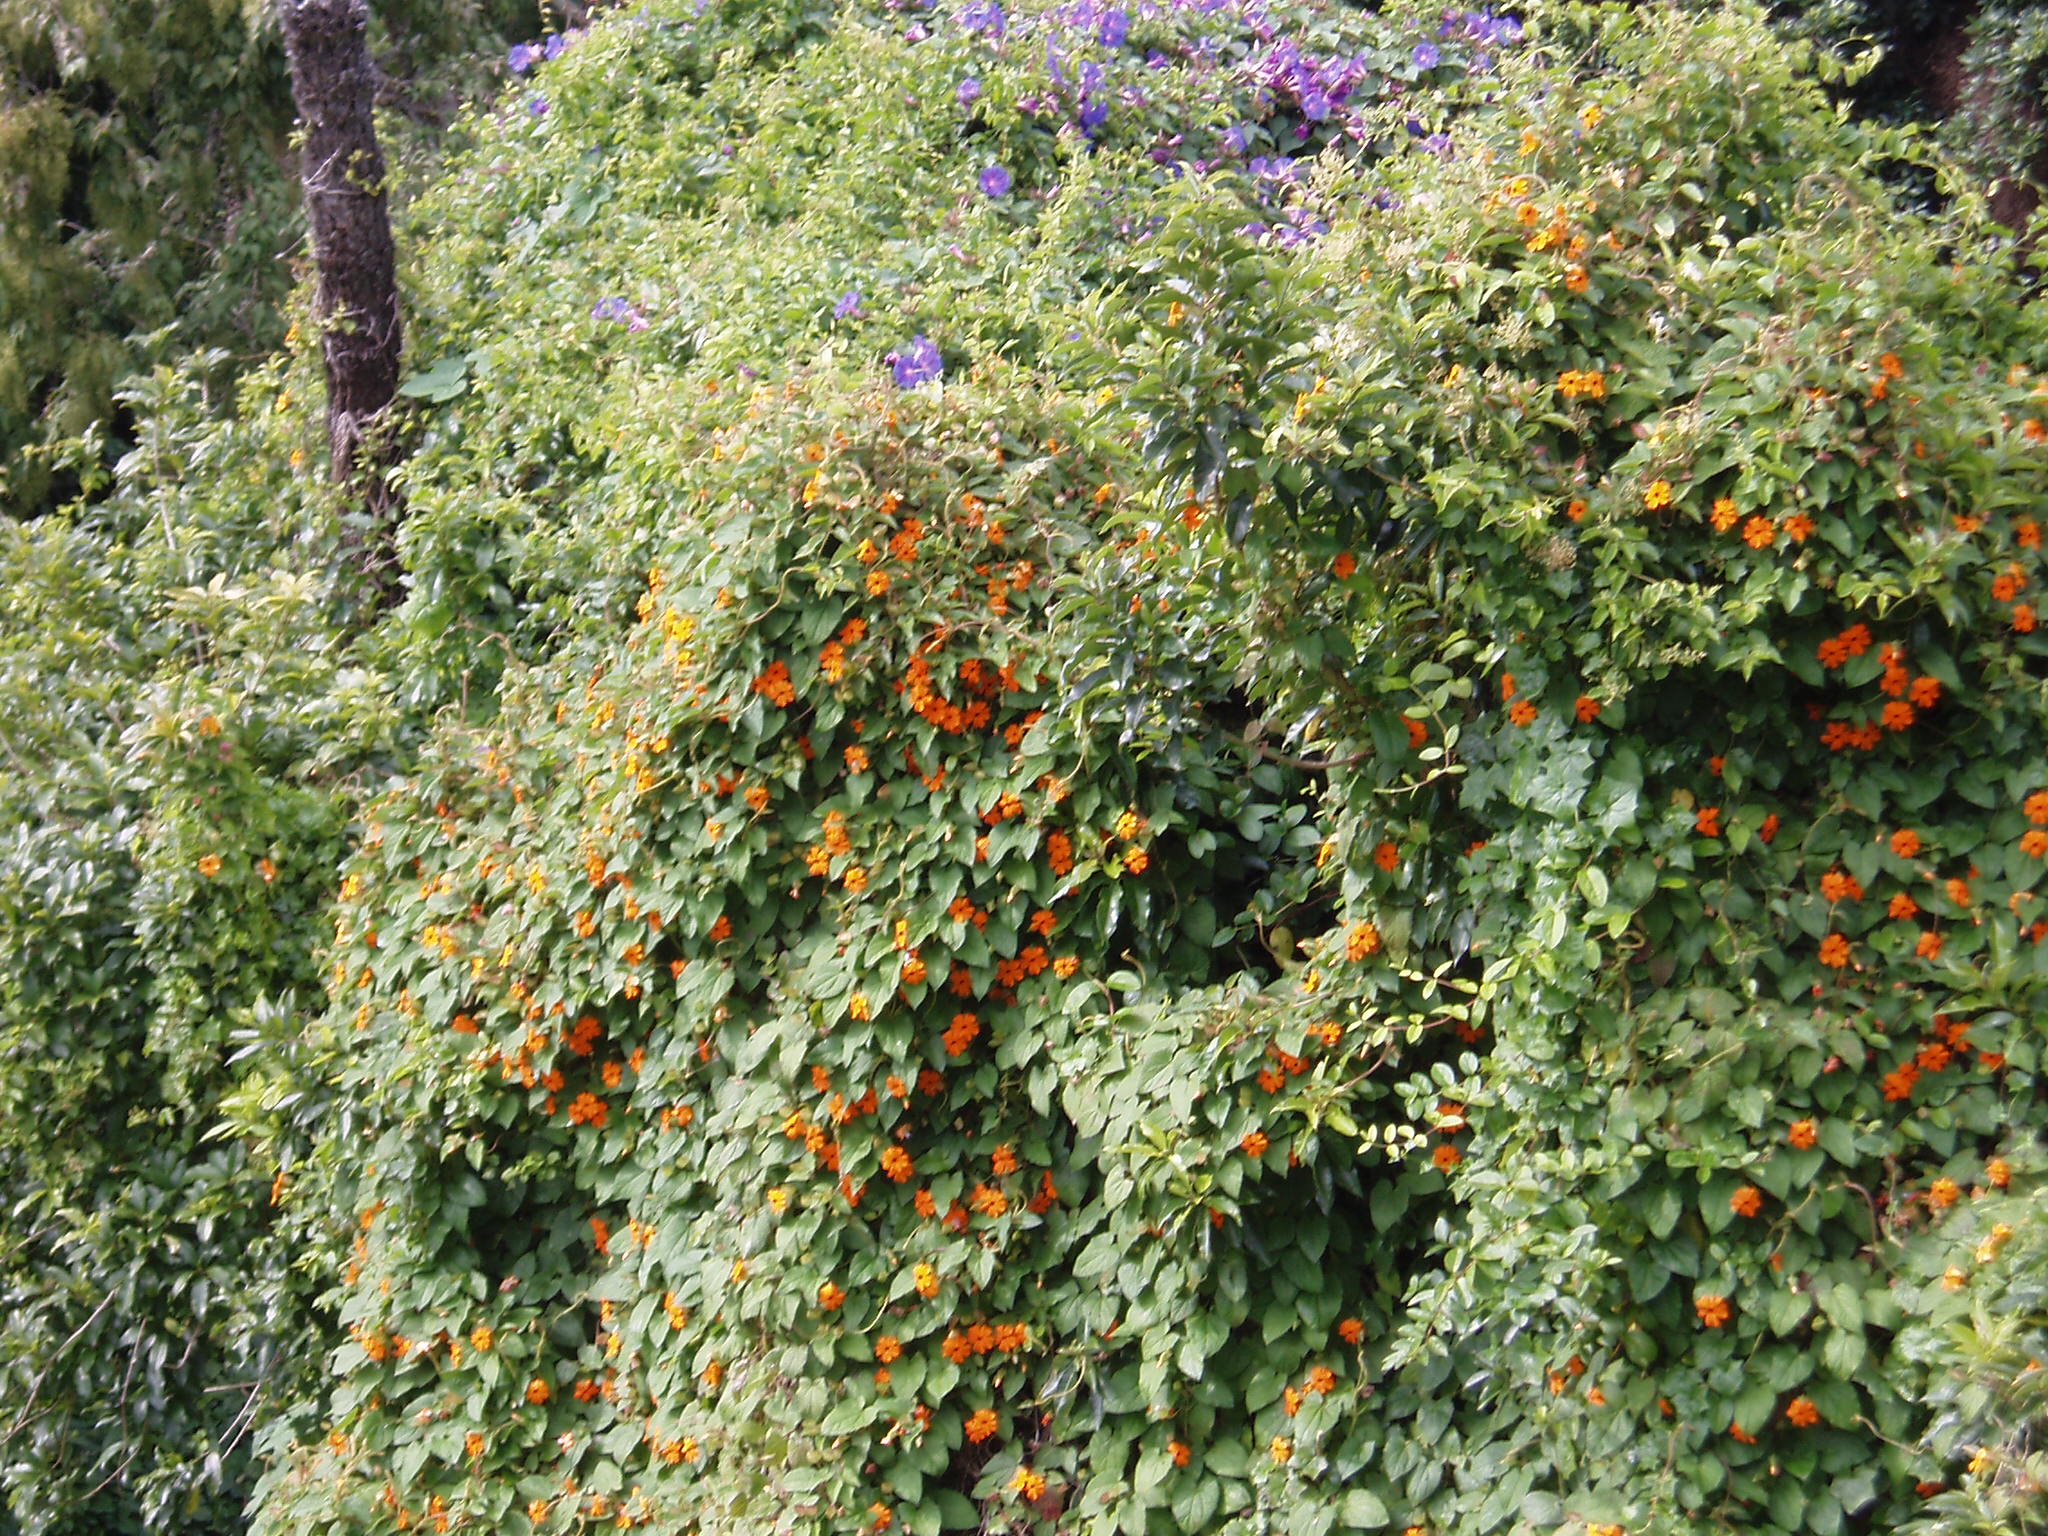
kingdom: Plantae
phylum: Tracheophyta
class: Magnoliopsida
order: Lamiales
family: Acanthaceae
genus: Thunbergia
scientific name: Thunbergia alata
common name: Blackeyed susan vine
